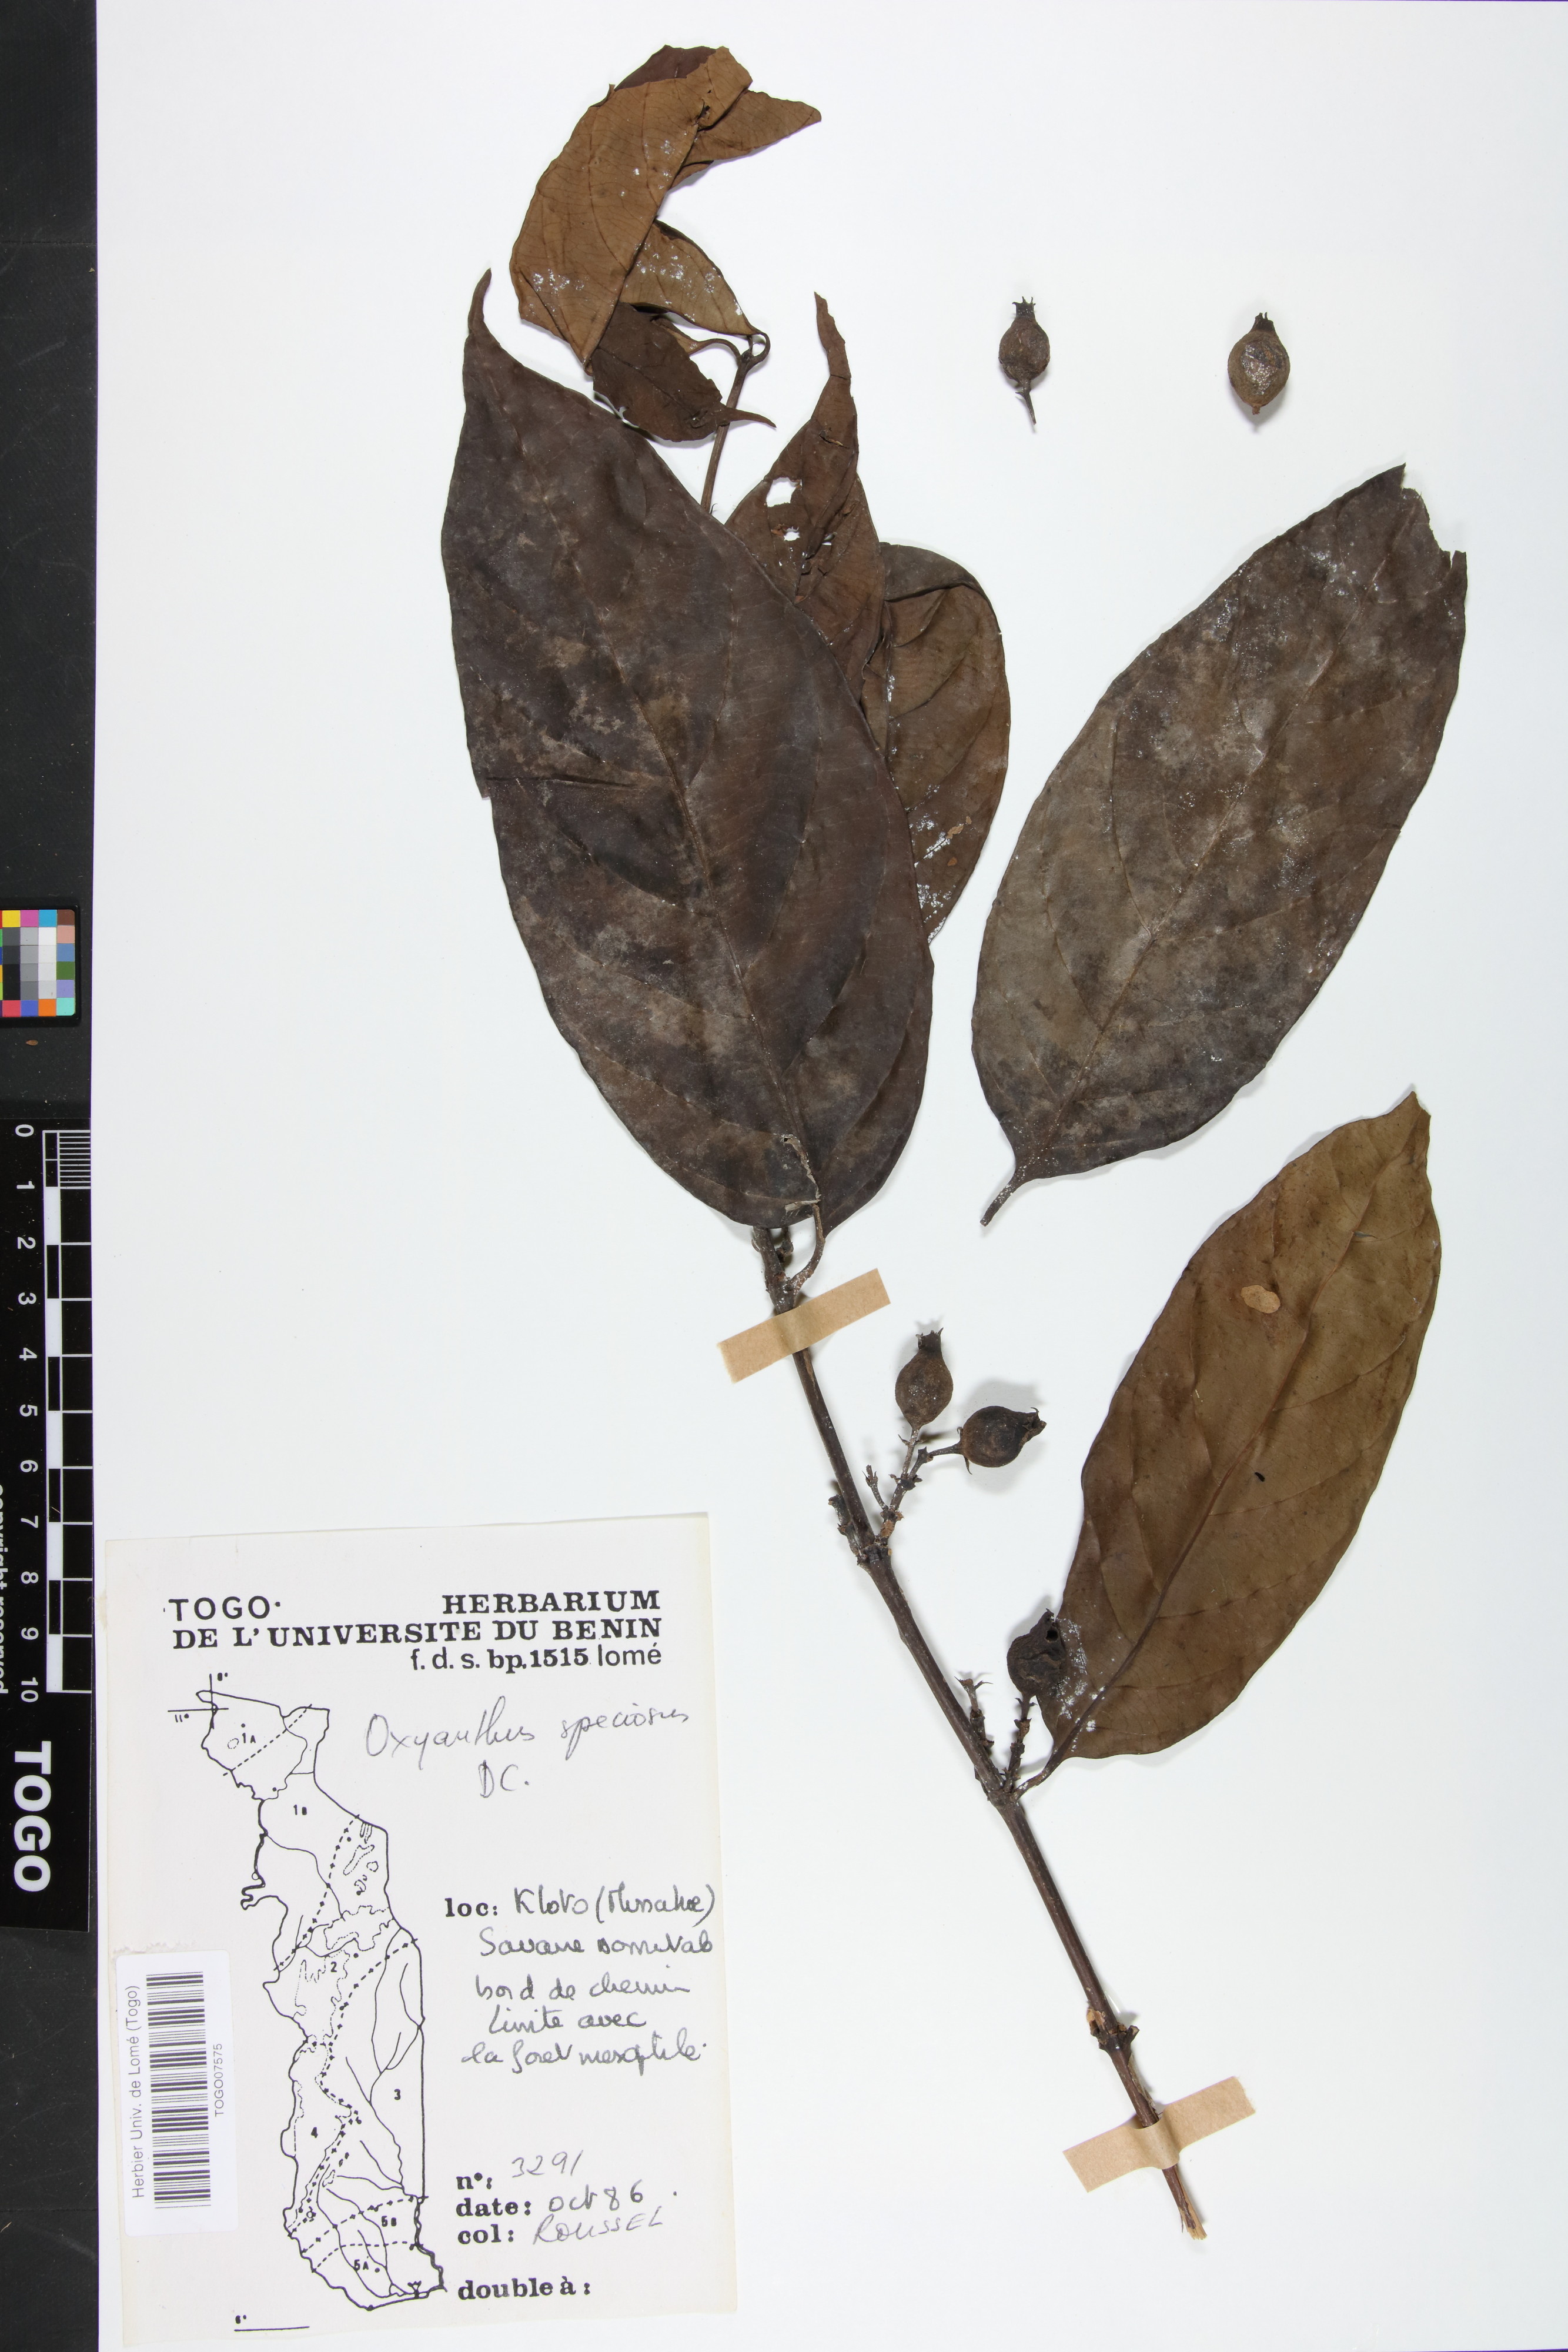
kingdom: Plantae
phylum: Tracheophyta
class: Magnoliopsida
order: Gentianales
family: Rubiaceae
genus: Oxyanthus
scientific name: Oxyanthus speciosus
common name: Whipstick loquat
